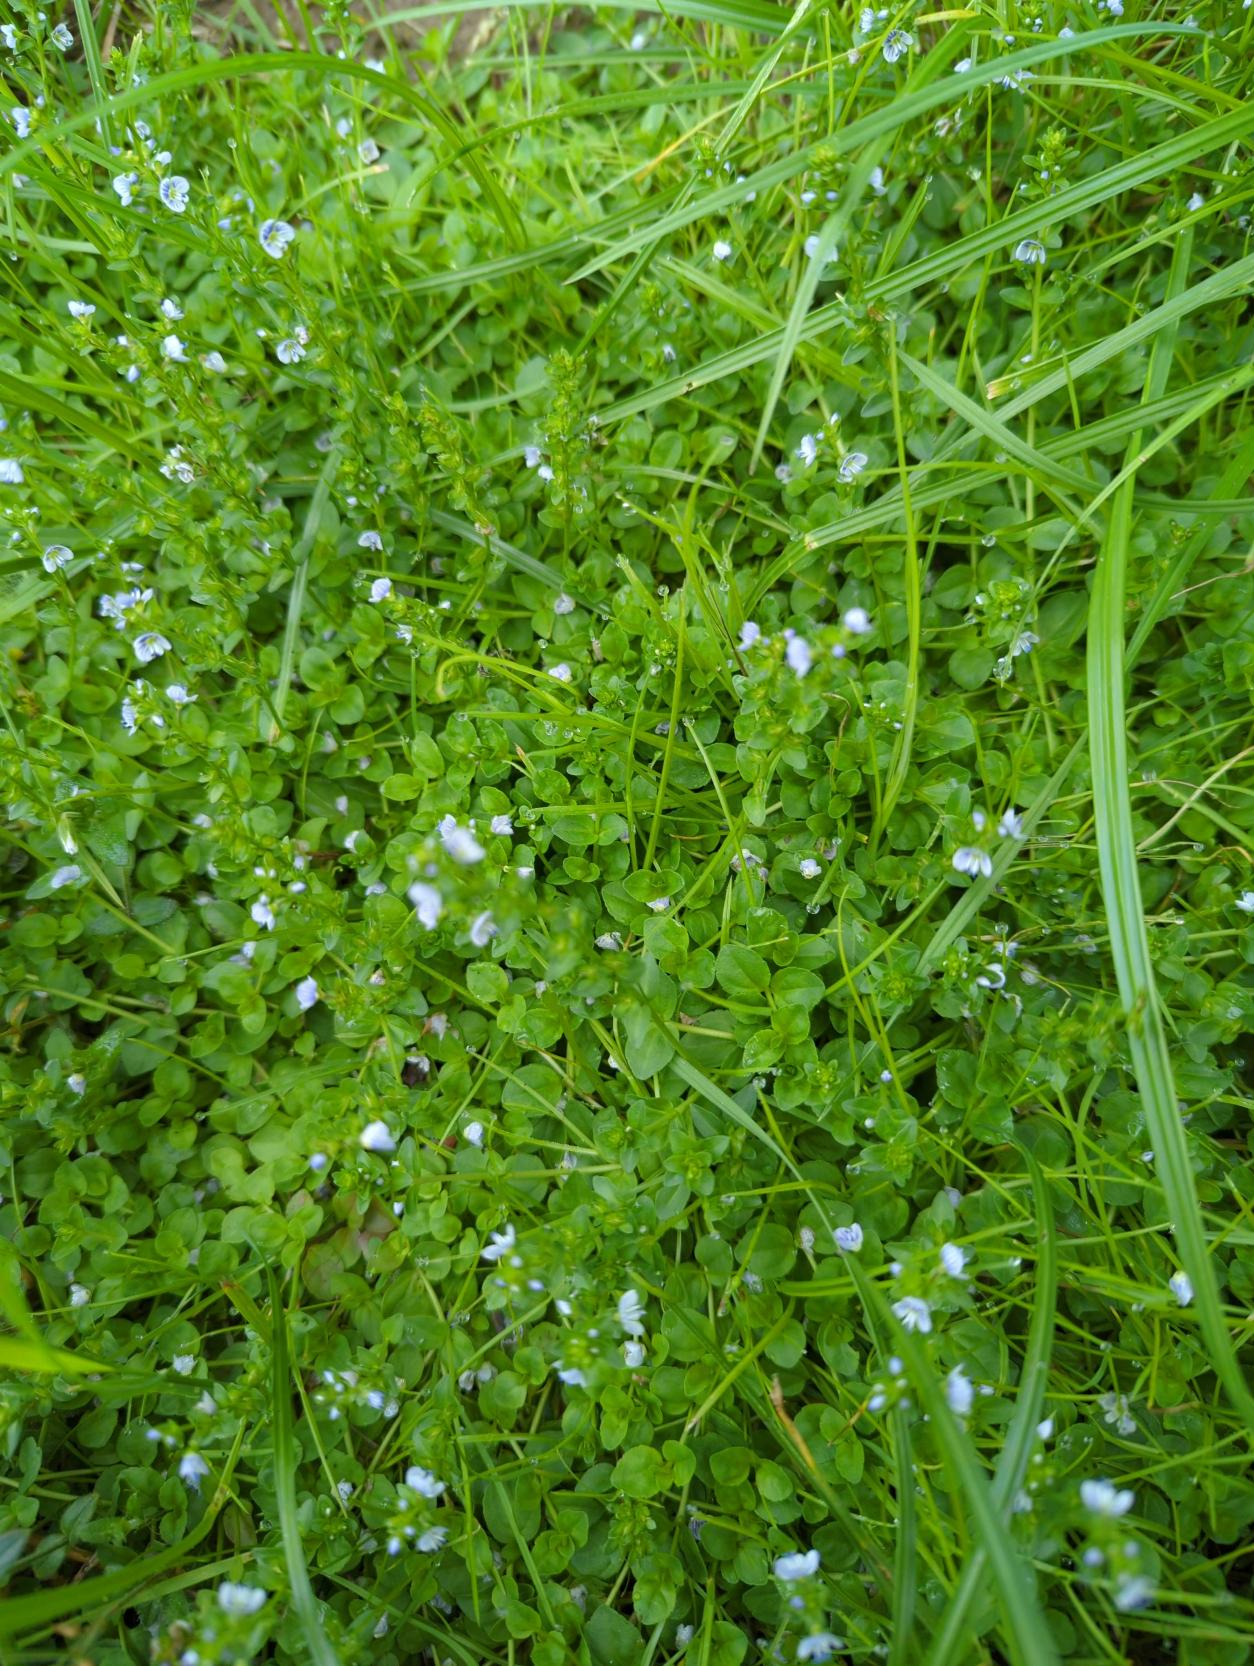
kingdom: Plantae
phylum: Tracheophyta
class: Magnoliopsida
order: Lamiales
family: Plantaginaceae
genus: Veronica
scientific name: Veronica serpyllifolia
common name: Glat ærenpris
